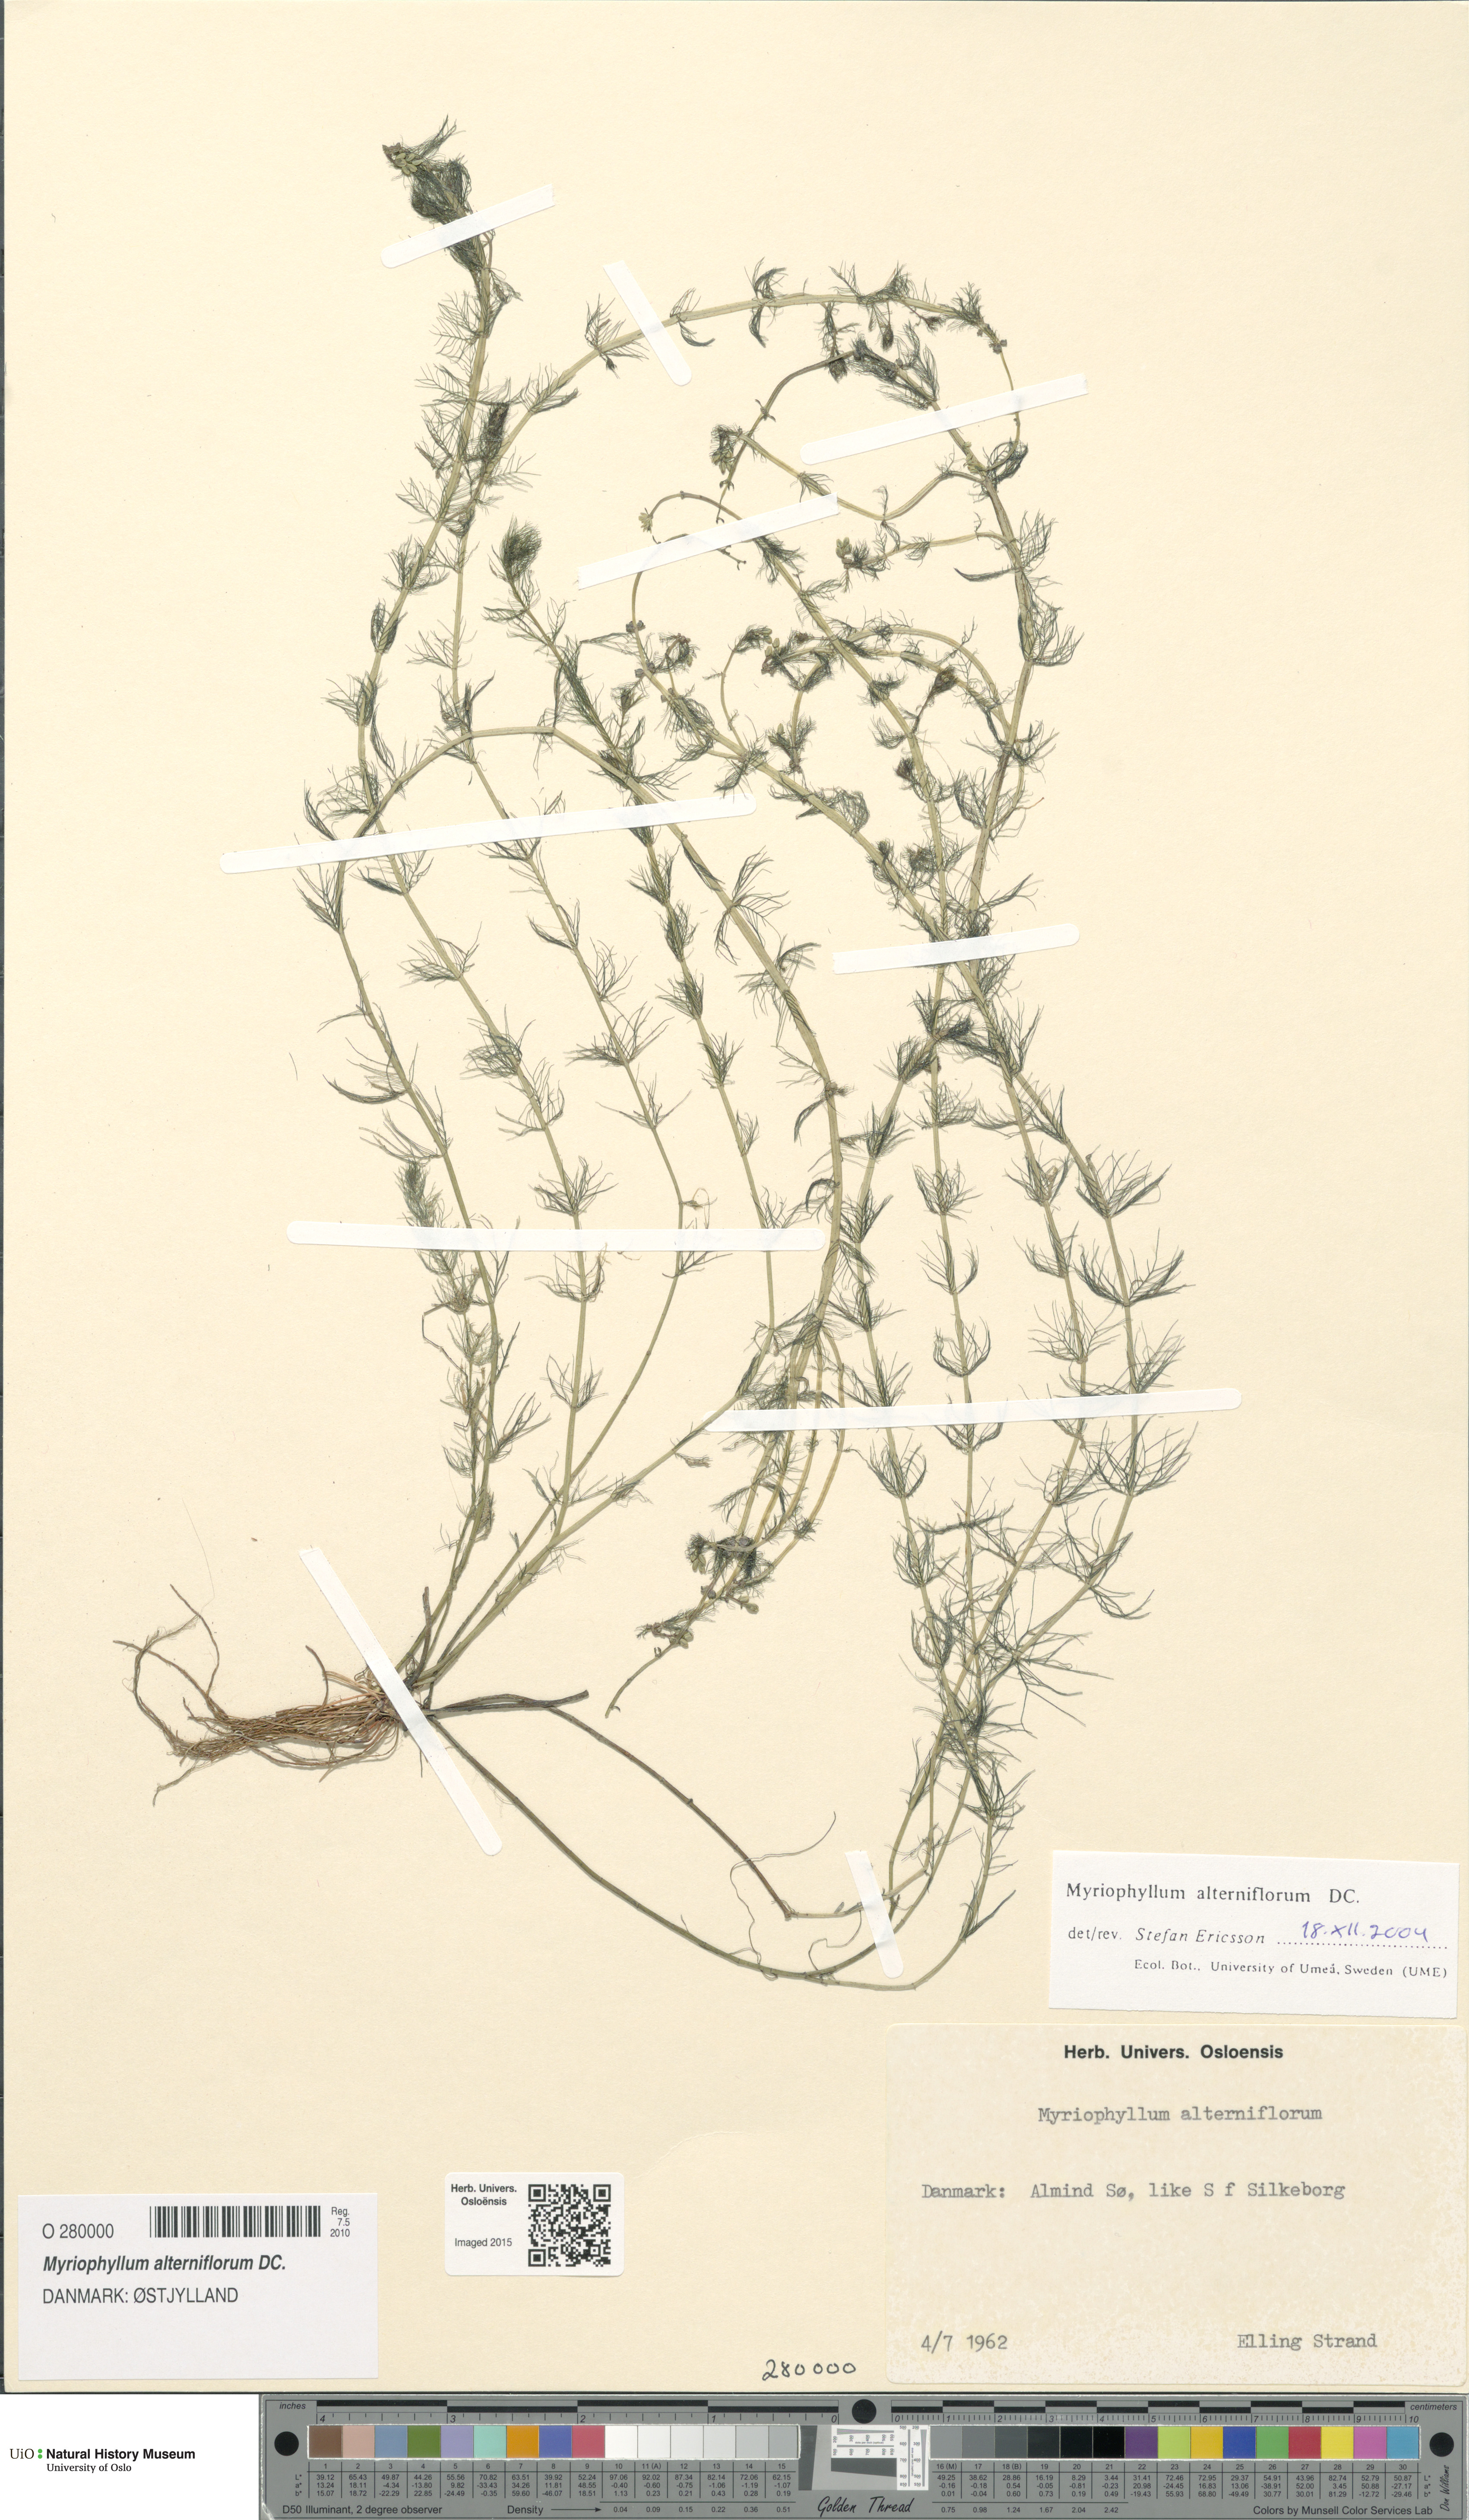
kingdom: Plantae
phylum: Tracheophyta
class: Magnoliopsida
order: Saxifragales
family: Haloragaceae
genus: Myriophyllum
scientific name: Myriophyllum alterniflorum
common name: Alternate water-milfoil
